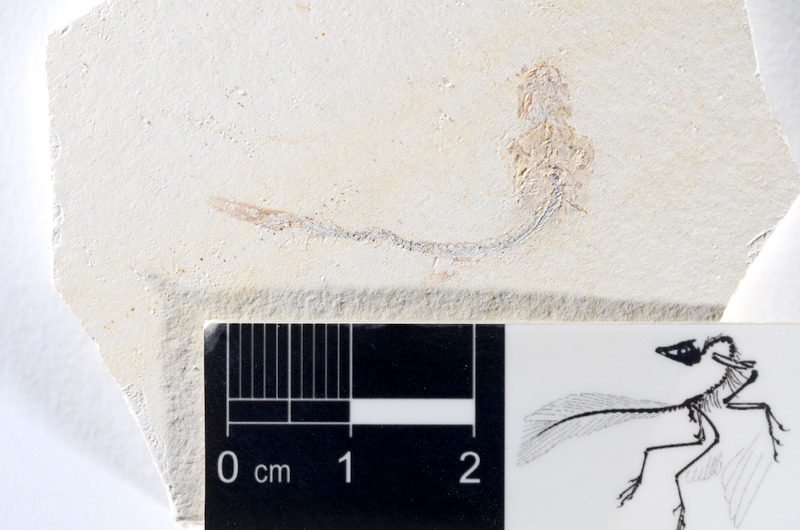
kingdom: Animalia
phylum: Chordata
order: Salmoniformes
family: Orthogonikleithridae
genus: Orthogonikleithrus
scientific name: Orthogonikleithrus hoelli
